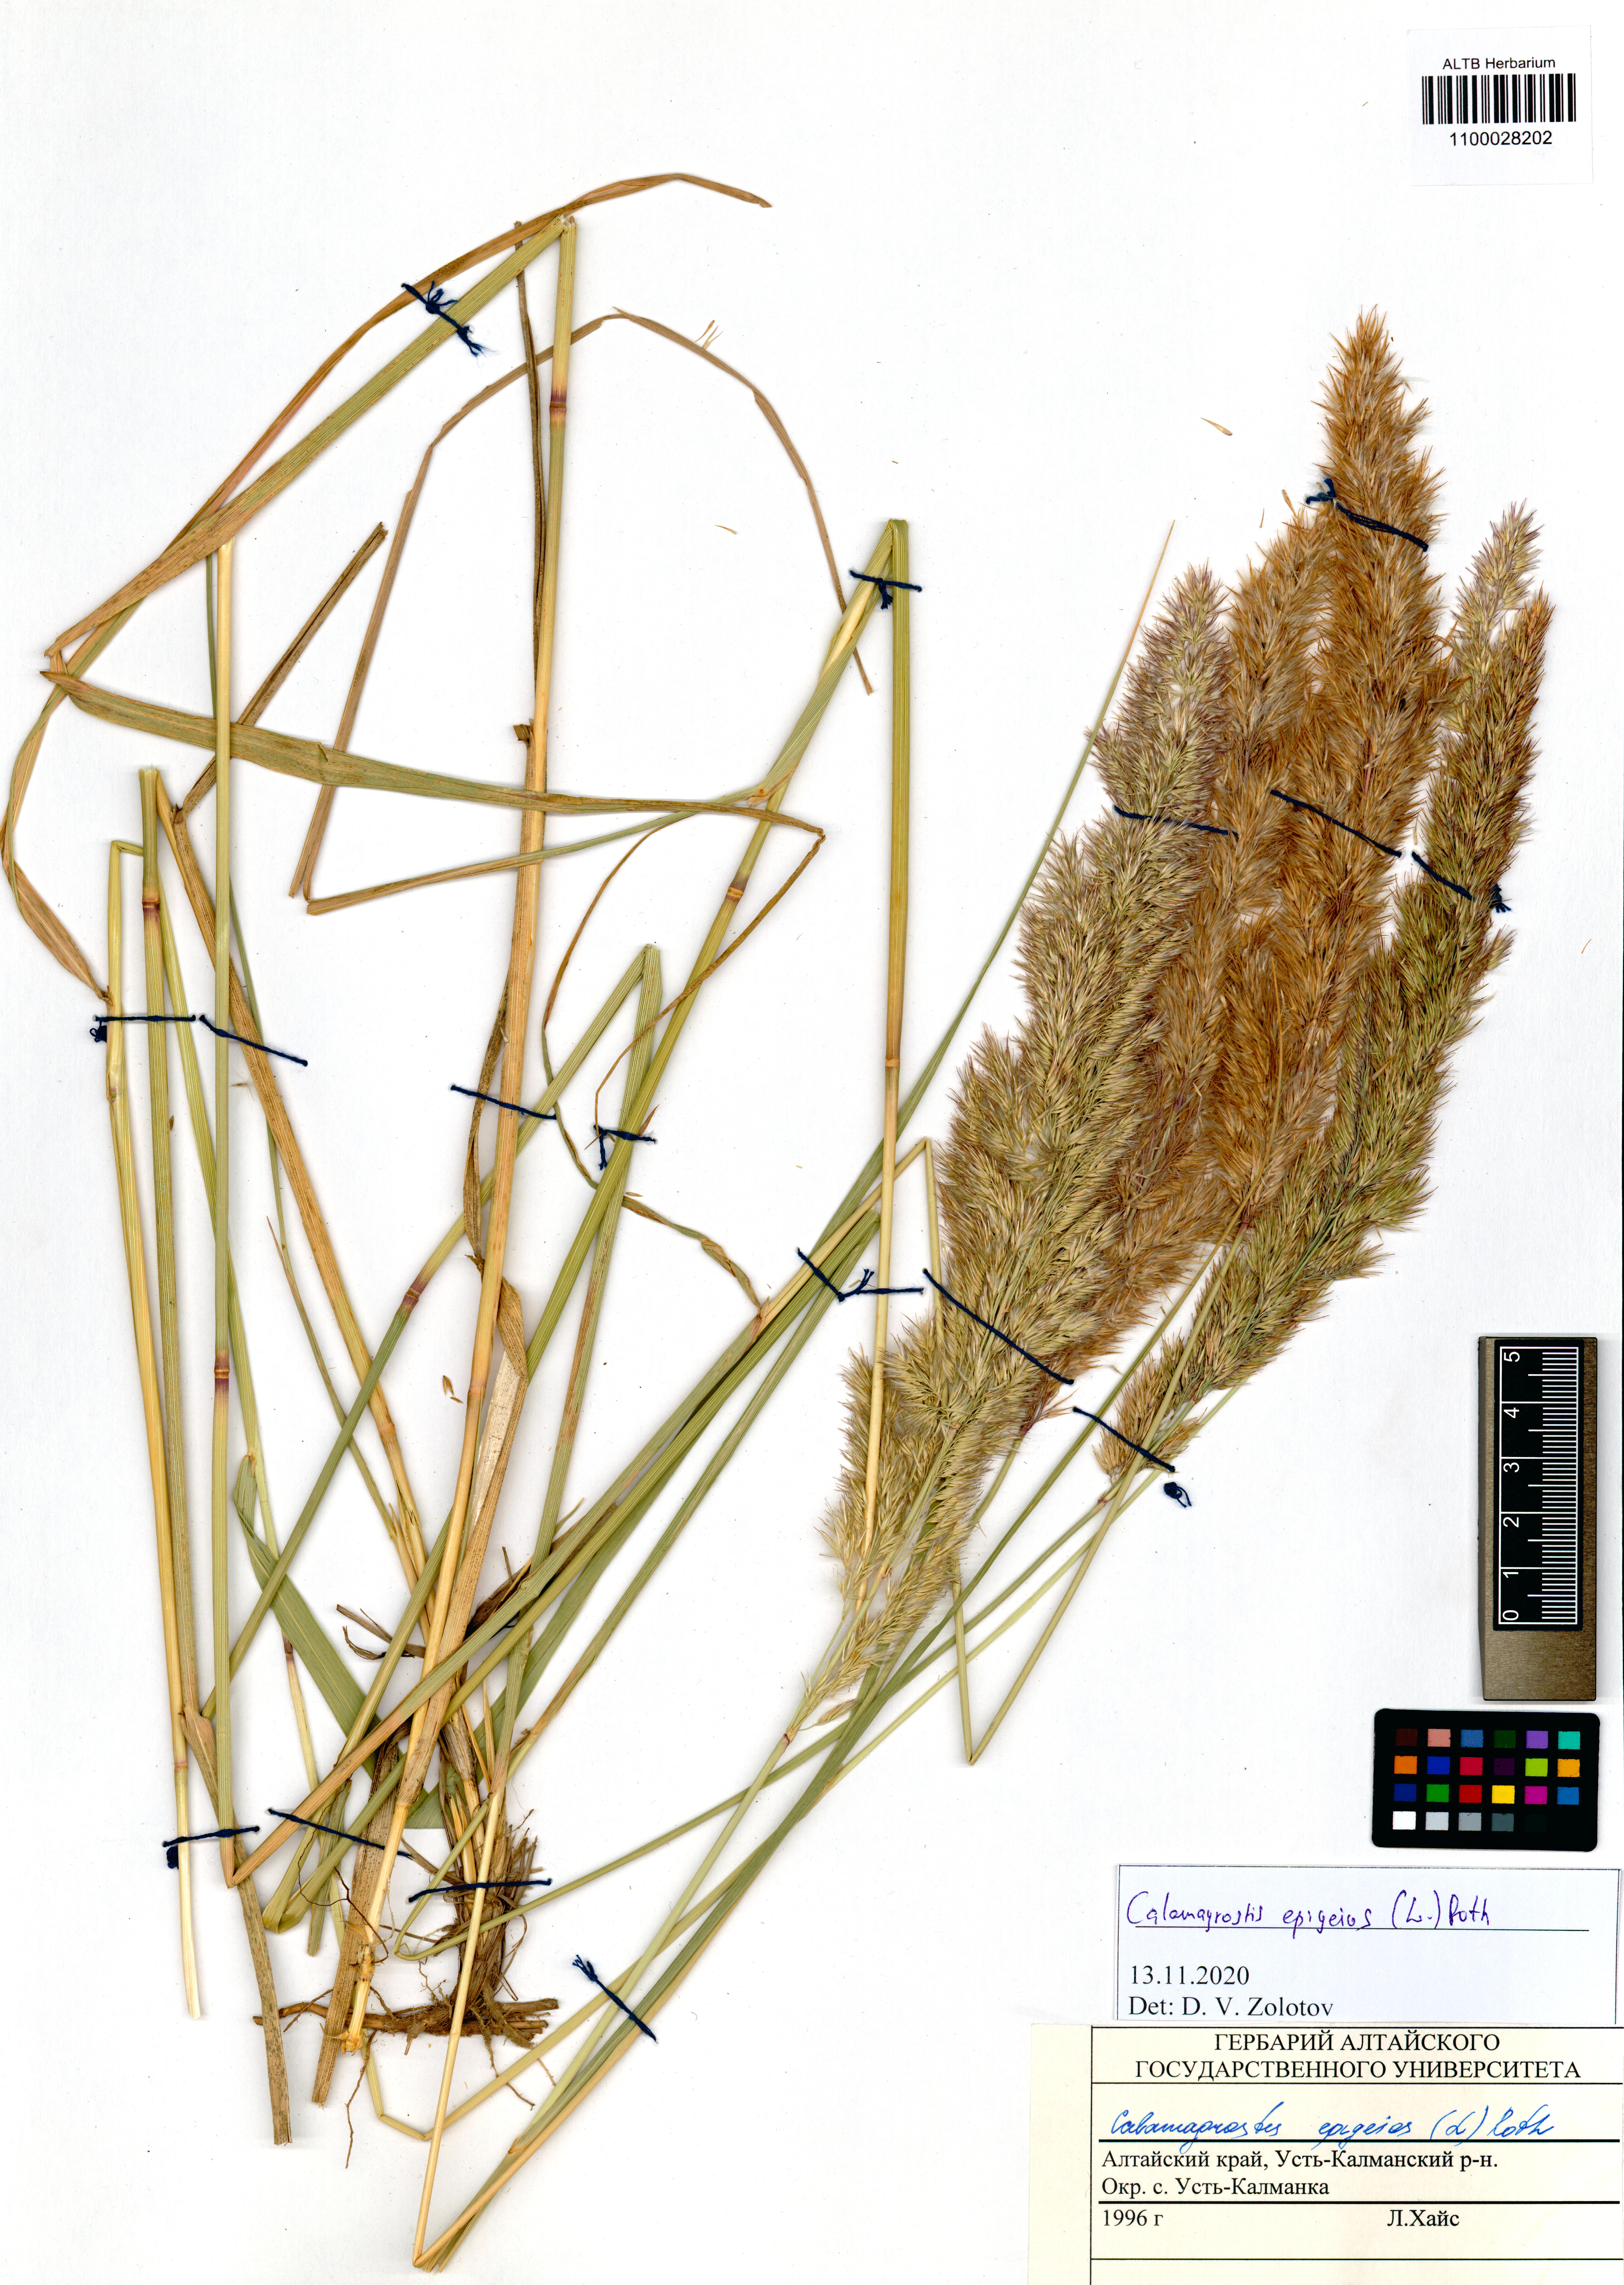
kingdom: Plantae
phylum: Tracheophyta
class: Liliopsida
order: Poales
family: Poaceae
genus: Calamagrostis
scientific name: Calamagrostis epigejos
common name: Wood small-reed
